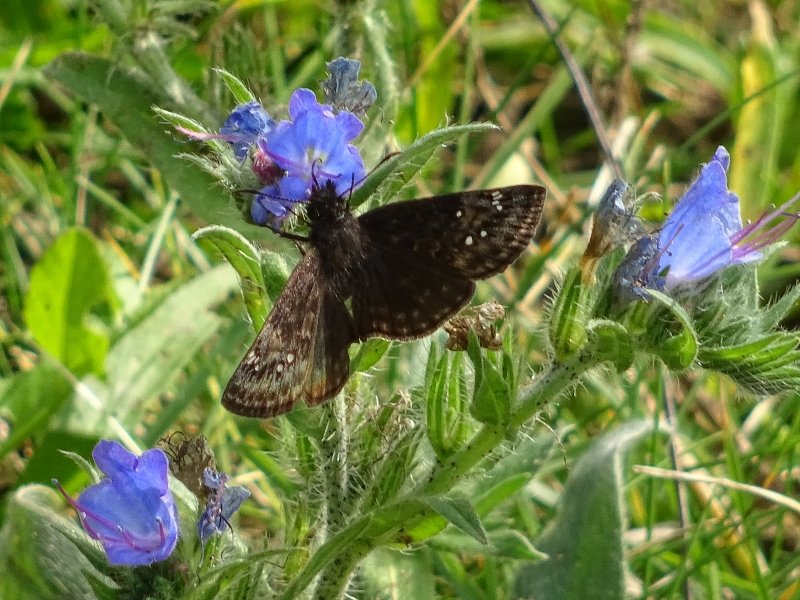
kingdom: Animalia
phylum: Arthropoda
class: Insecta
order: Lepidoptera
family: Hesperiidae
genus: Gesta
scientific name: Gesta
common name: Wild Indigo Duskywing
